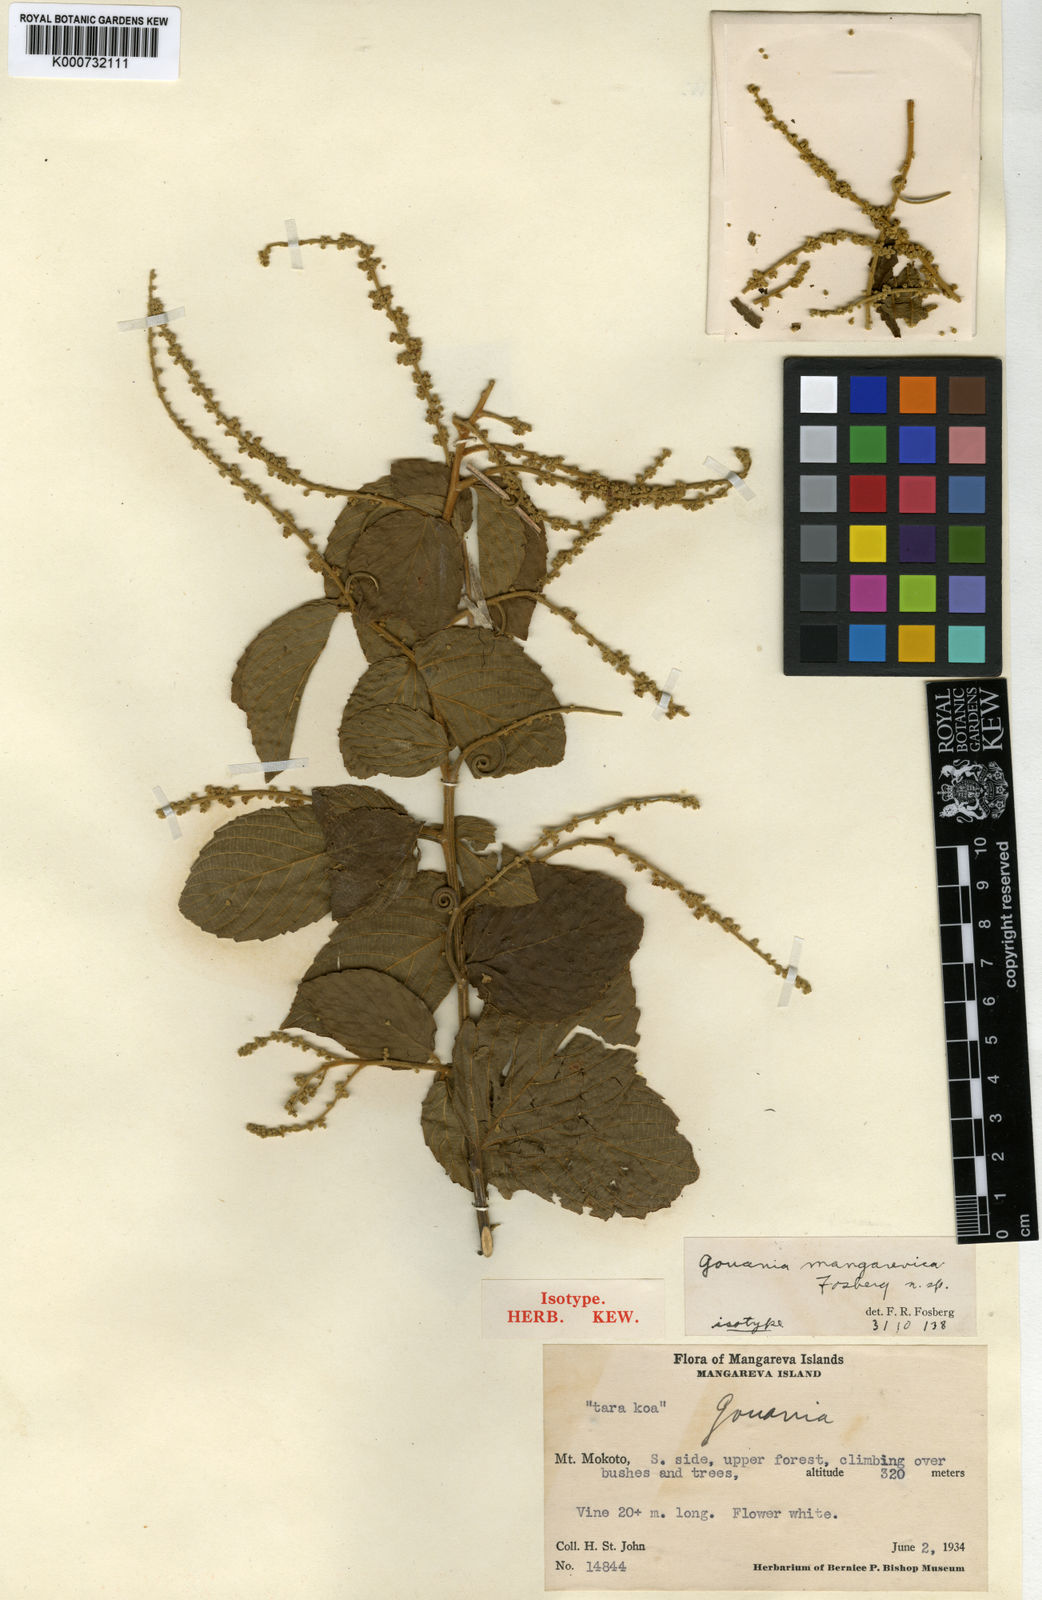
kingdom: Plantae
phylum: Tracheophyta
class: Magnoliopsida
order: Rosales
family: Rhamnaceae
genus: Gouania
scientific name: Gouania mangarevica
